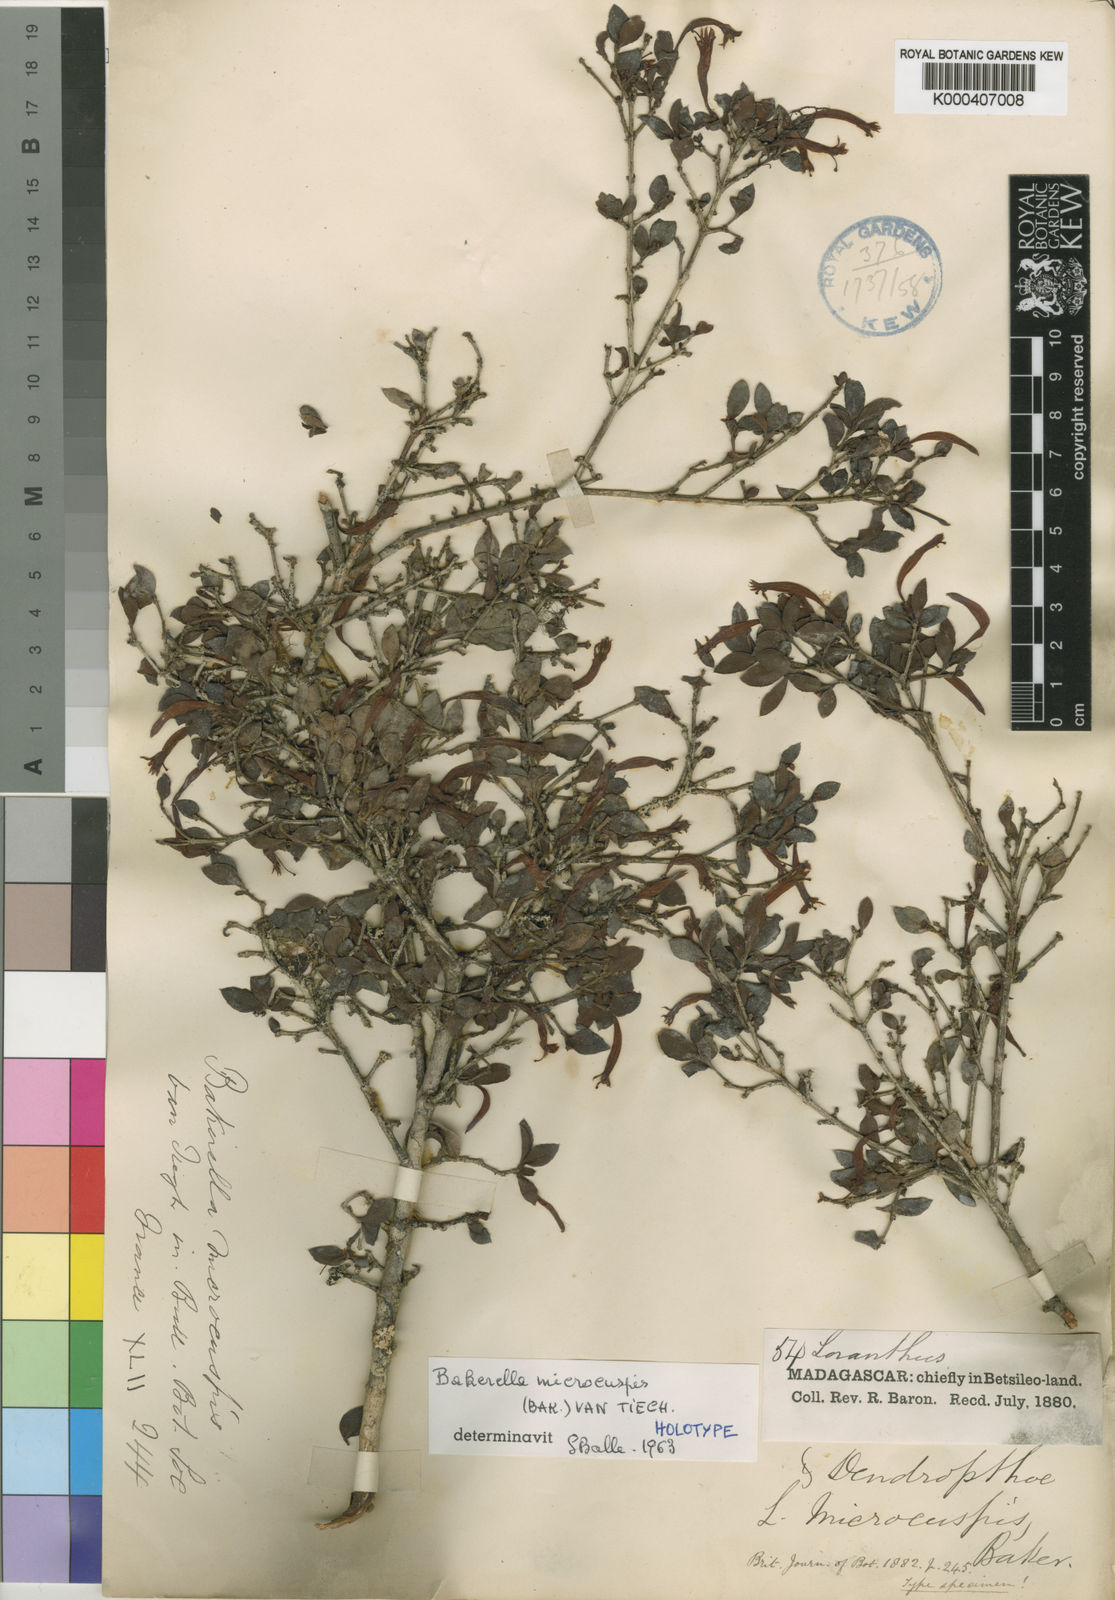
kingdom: Plantae
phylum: Tracheophyta
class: Magnoliopsida
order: Santalales
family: Loranthaceae
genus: Bakerella
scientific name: Bakerella microcuspis
